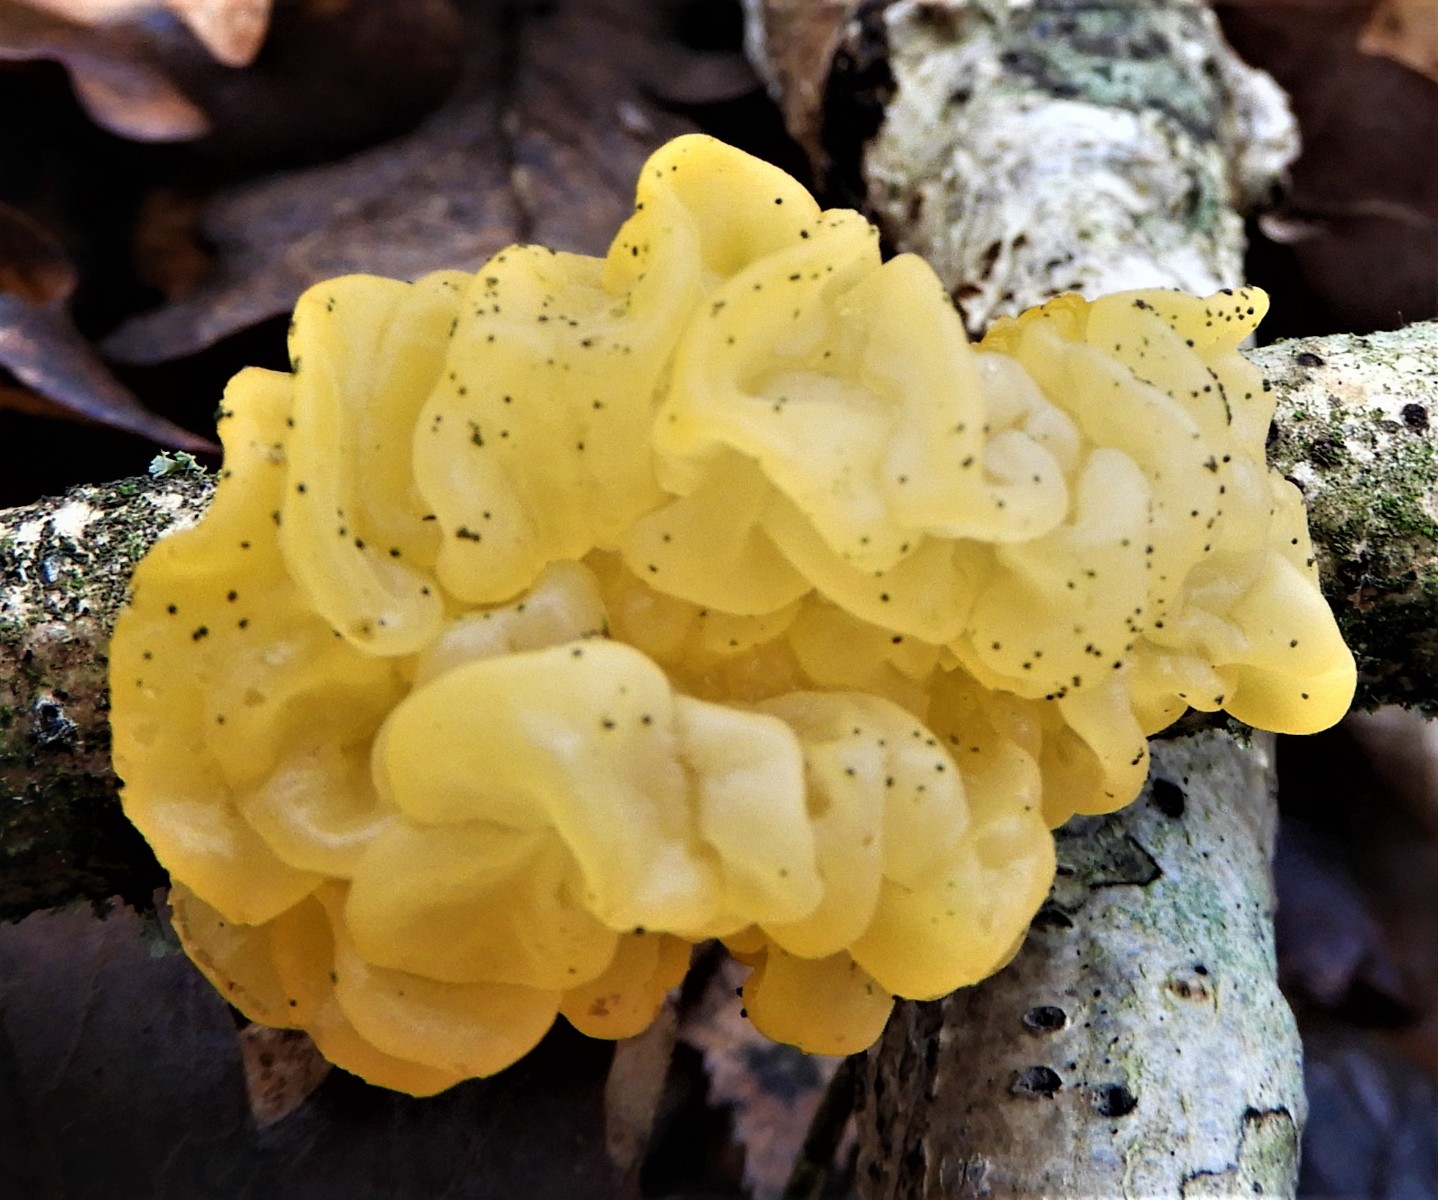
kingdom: Fungi
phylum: Basidiomycota
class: Tremellomycetes
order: Tremellales
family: Tremellaceae
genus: Tremella
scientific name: Tremella mesenterica
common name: gul bævresvamp
